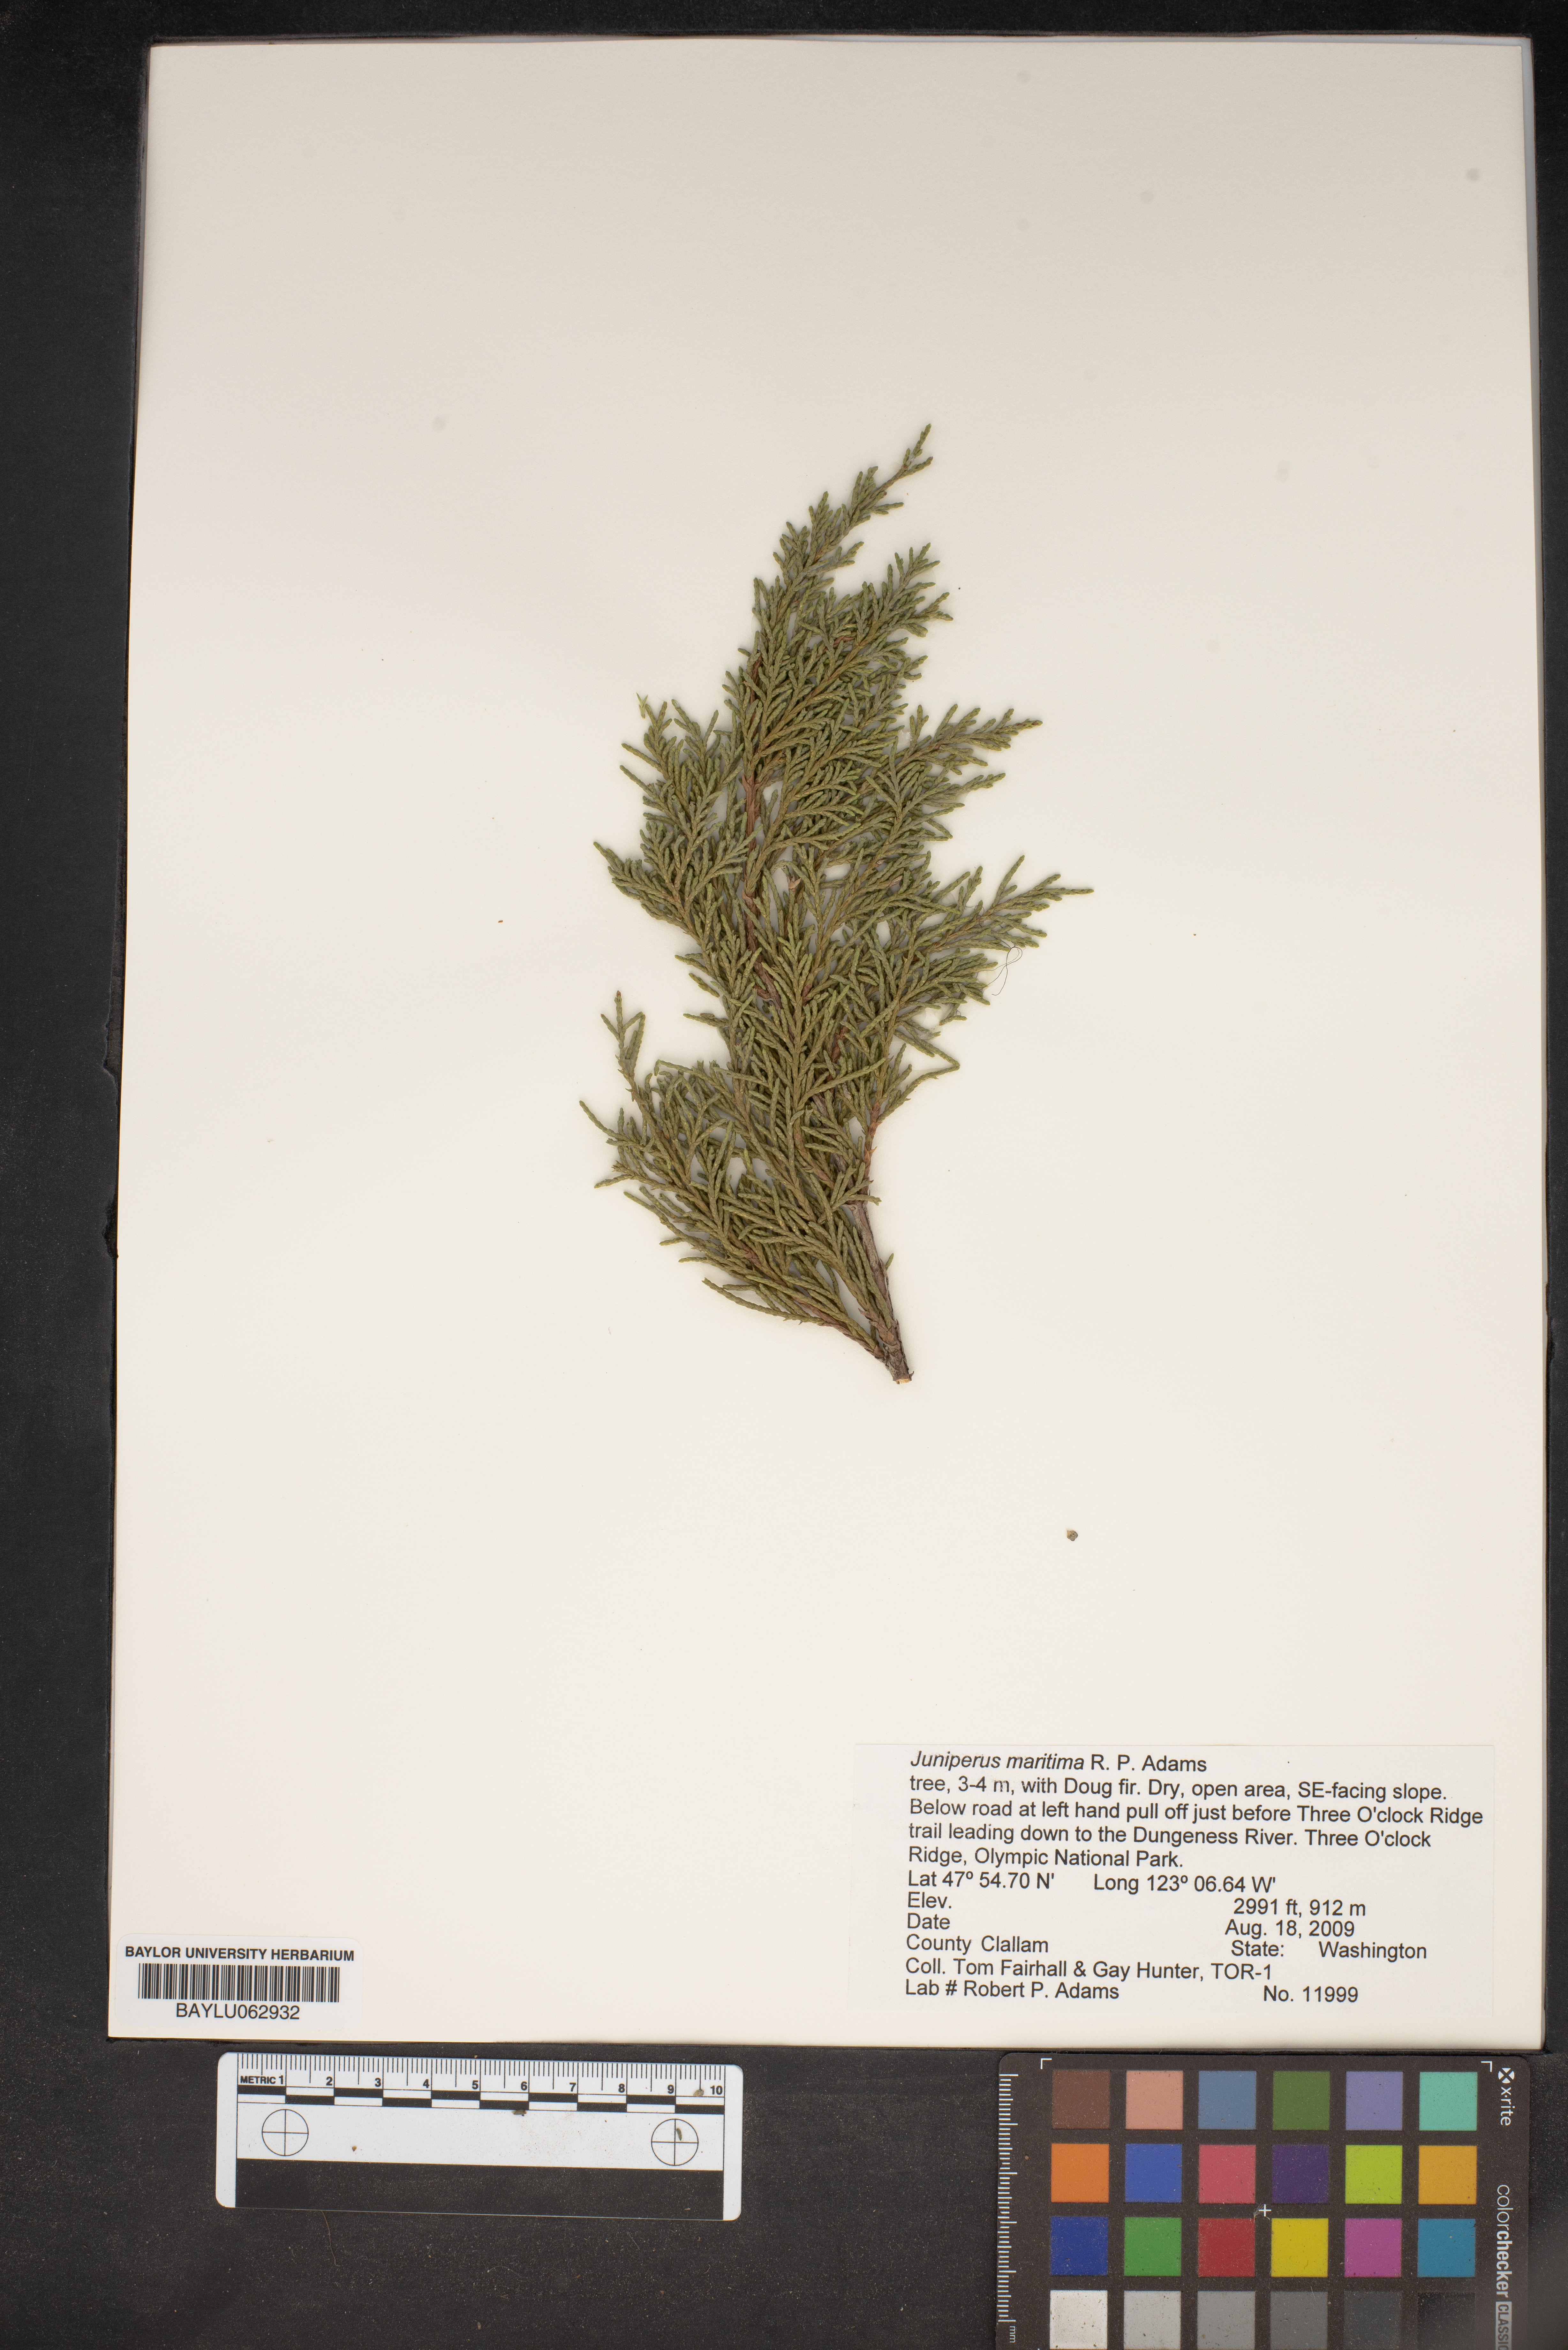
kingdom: Plantae
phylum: Tracheophyta
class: Pinopsida
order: Pinales
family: Cupressaceae
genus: Juniperus
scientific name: Juniperus scopulorum
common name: Rocky mountain juniper
